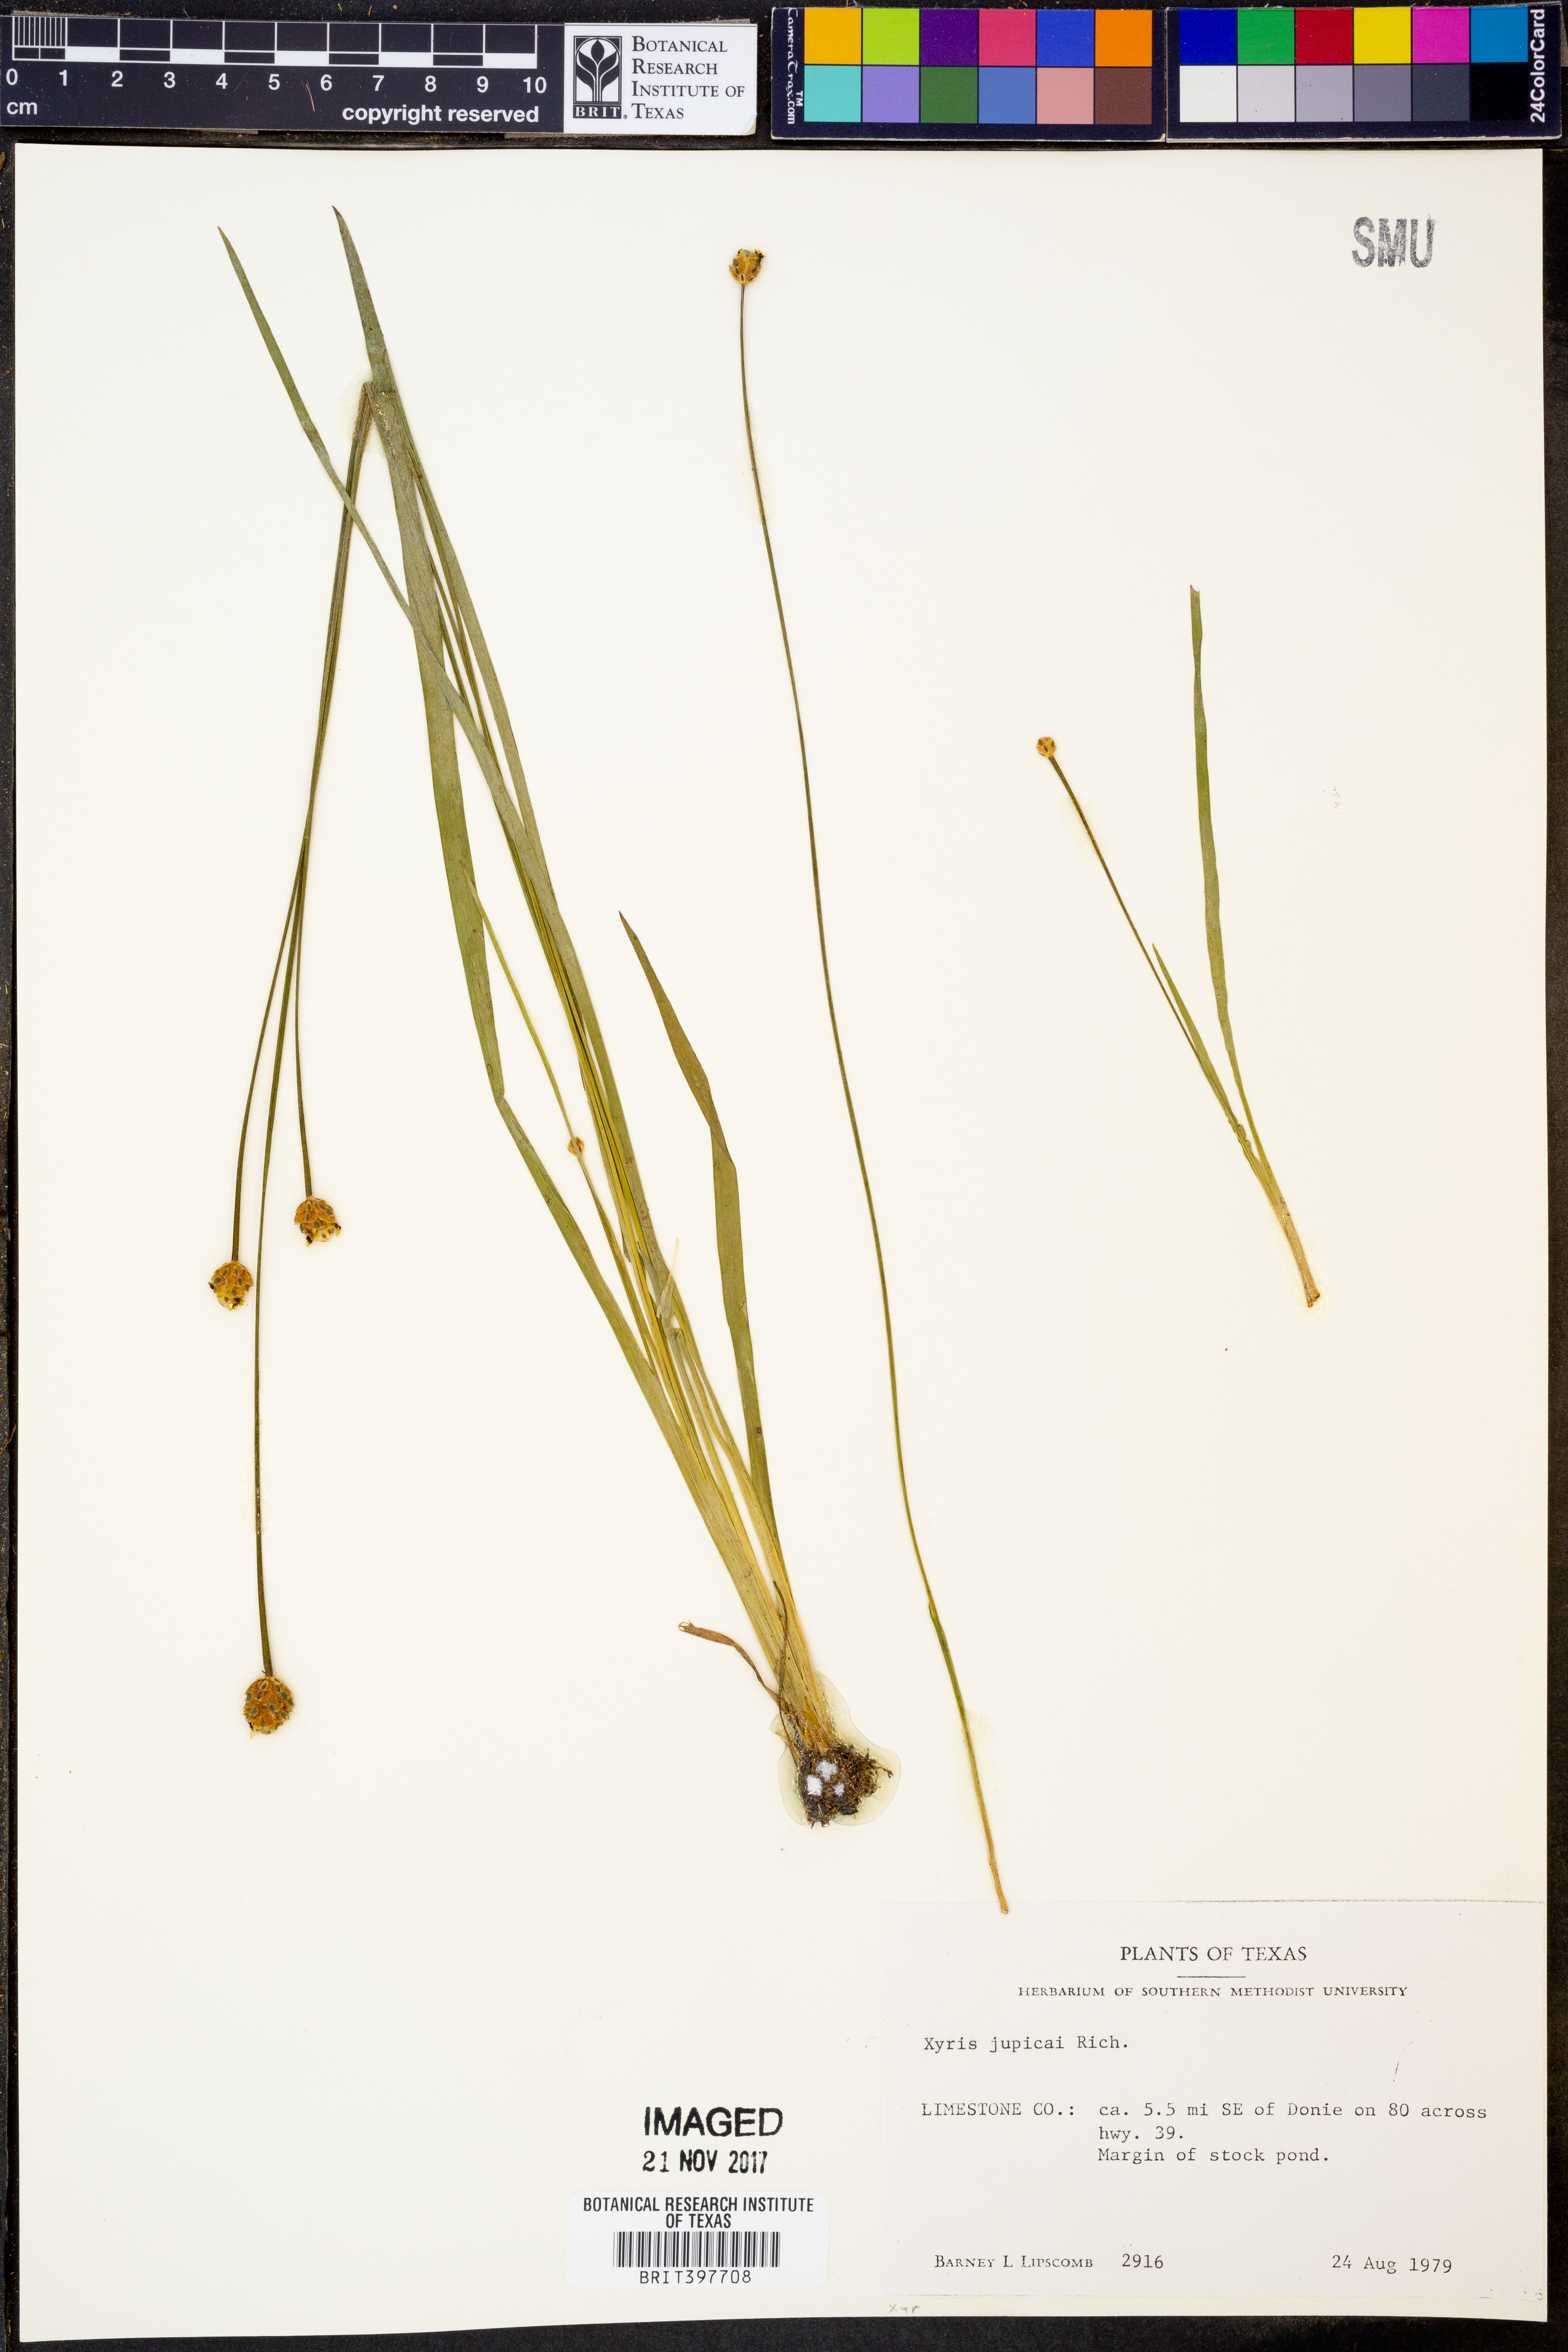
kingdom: Plantae
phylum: Tracheophyta
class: Liliopsida
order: Poales
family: Xyridaceae
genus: Xyris
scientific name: Xyris jupicai
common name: Richard's yelloweyed grass
